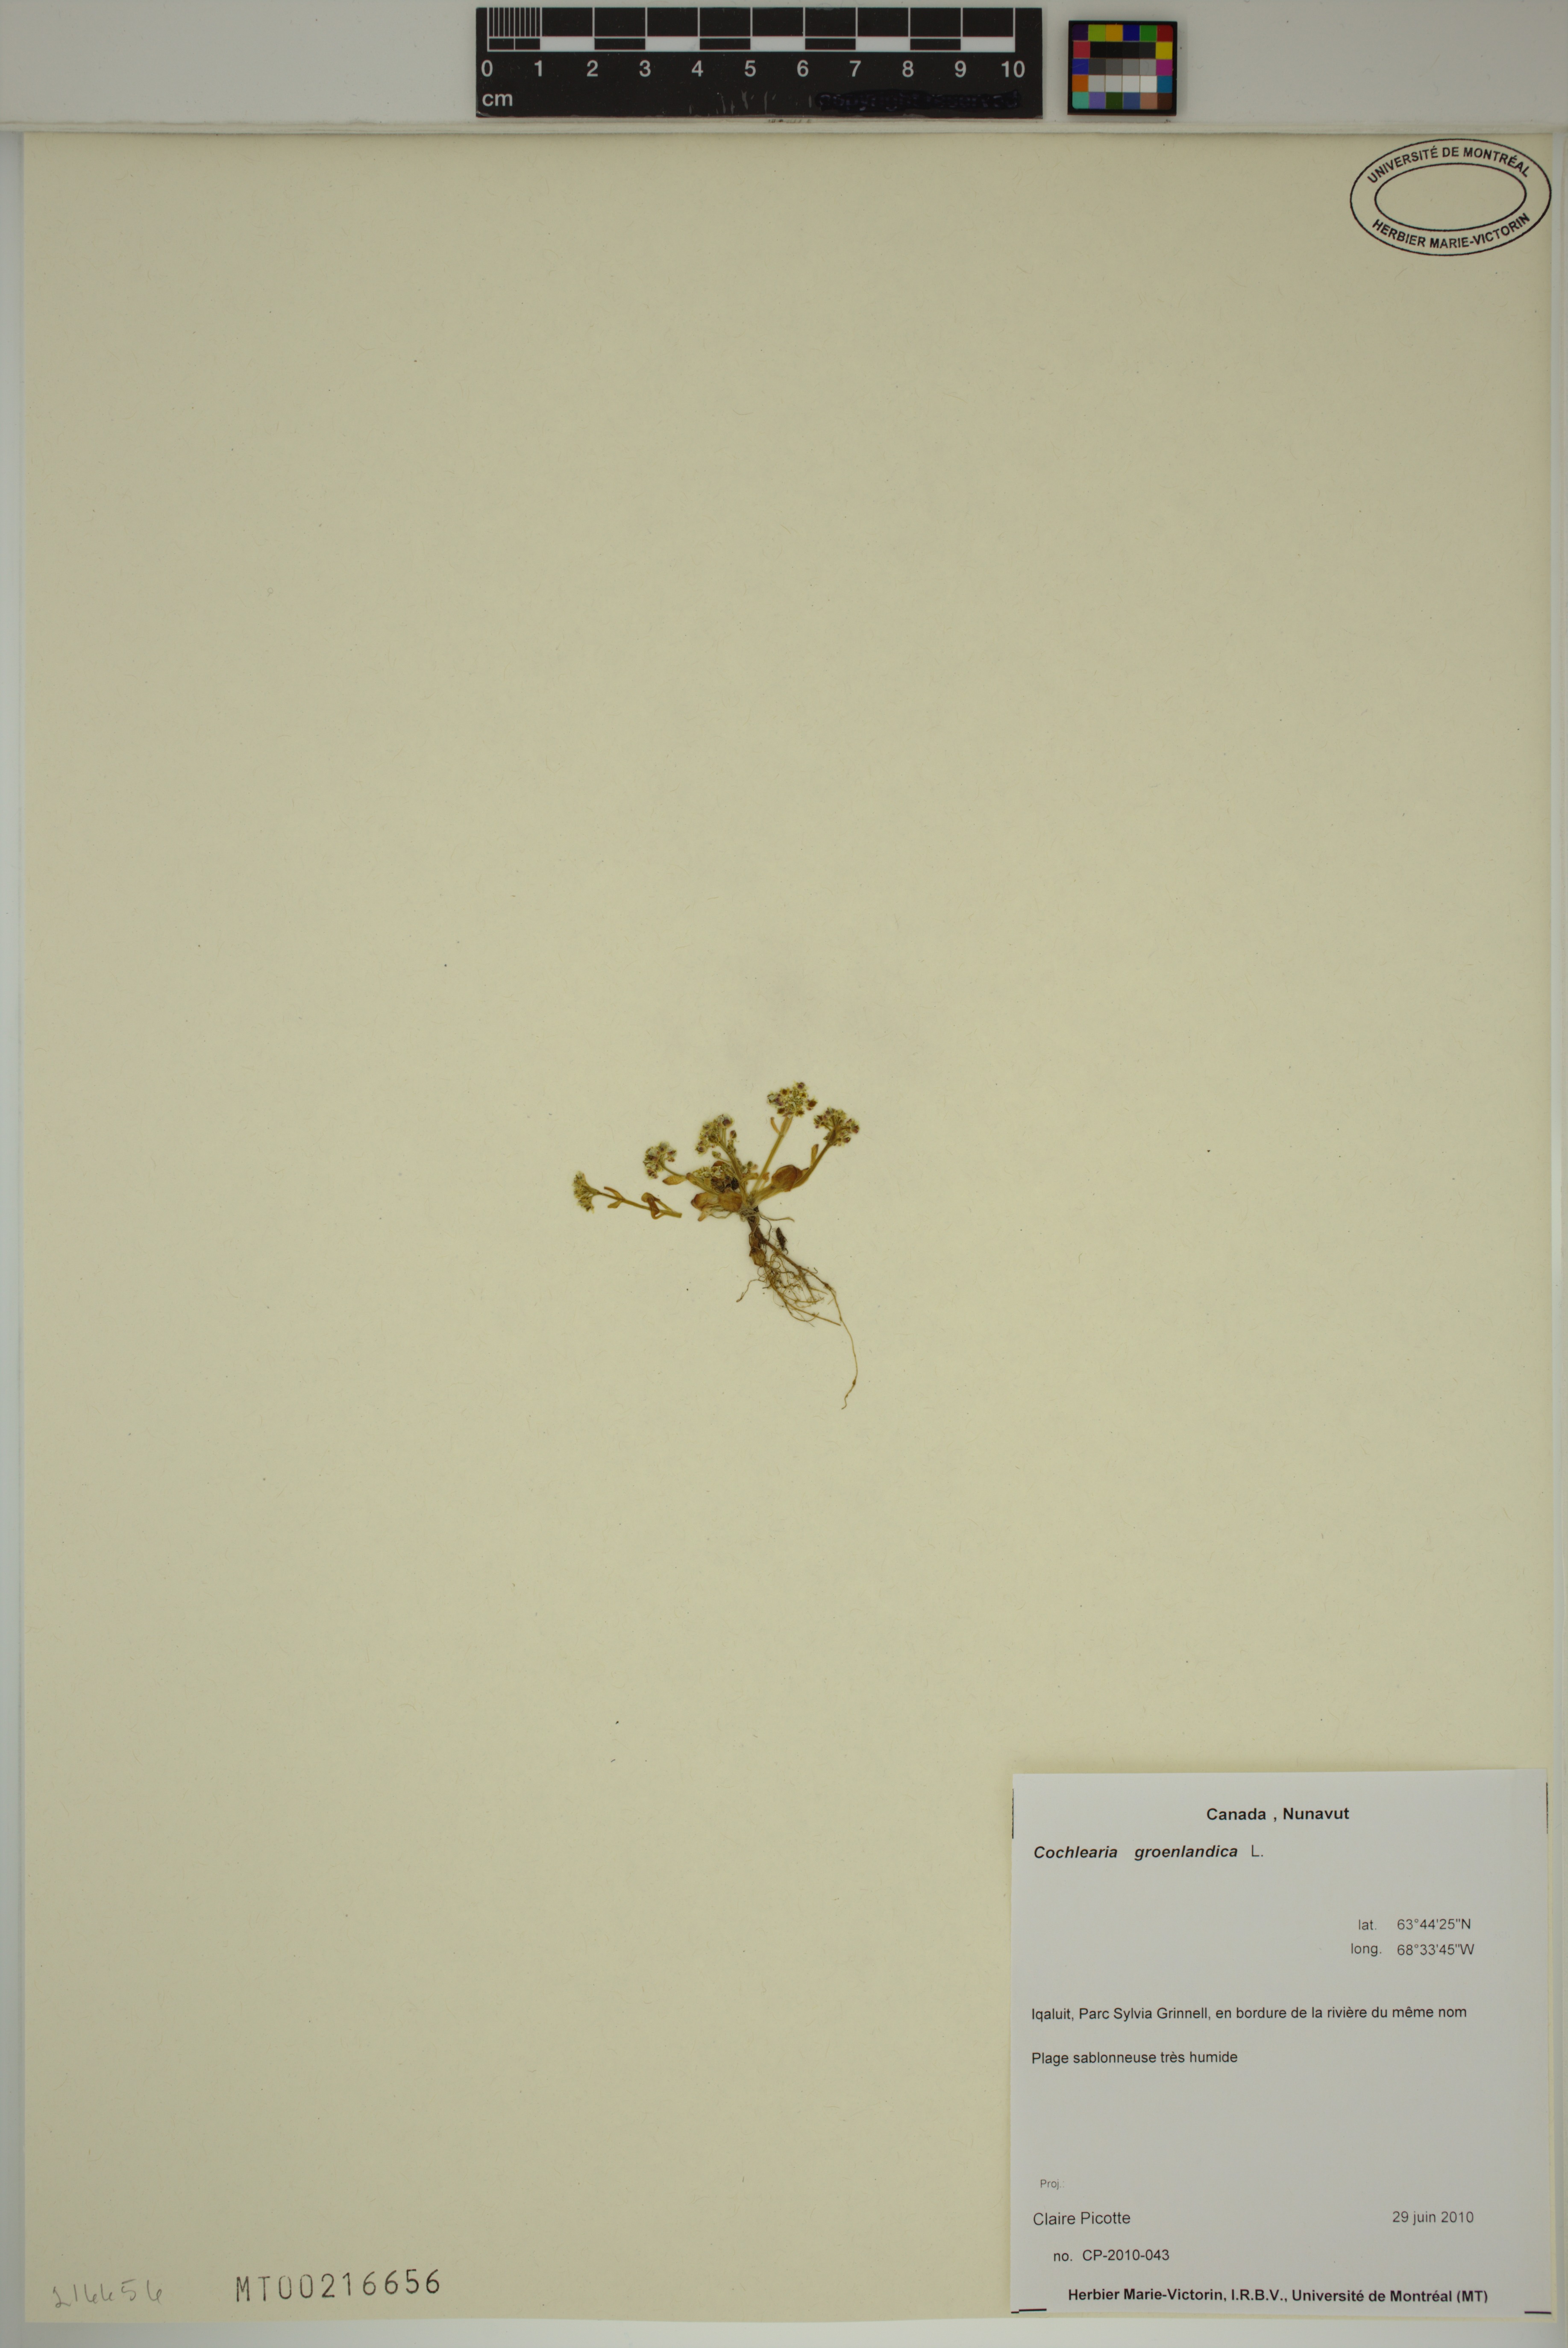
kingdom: Plantae
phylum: Tracheophyta
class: Magnoliopsida
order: Brassicales
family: Brassicaceae
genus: Cochlearia
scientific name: Cochlearia groenlandica
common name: Danish scurvygrass
